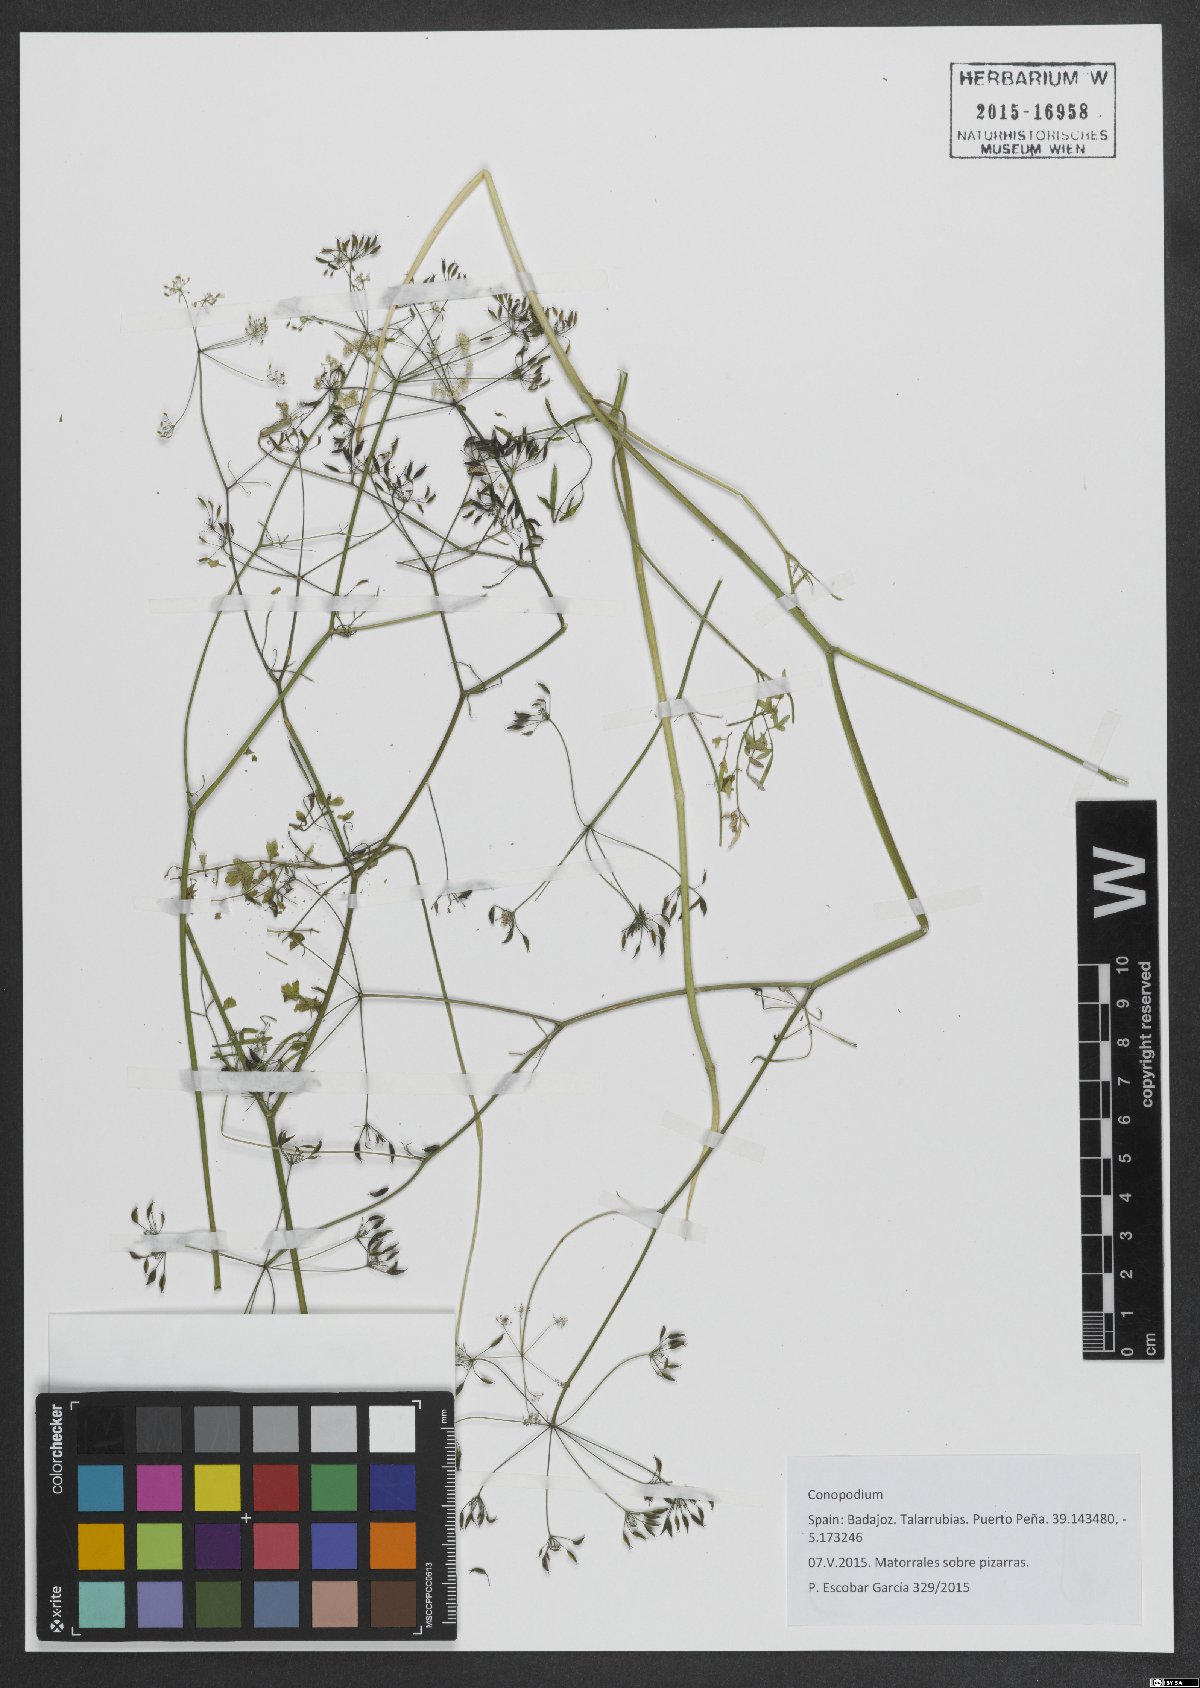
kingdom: Plantae
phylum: Tracheophyta
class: Magnoliopsida
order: Apiales
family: Apiaceae
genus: Conopodium
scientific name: Conopodium
